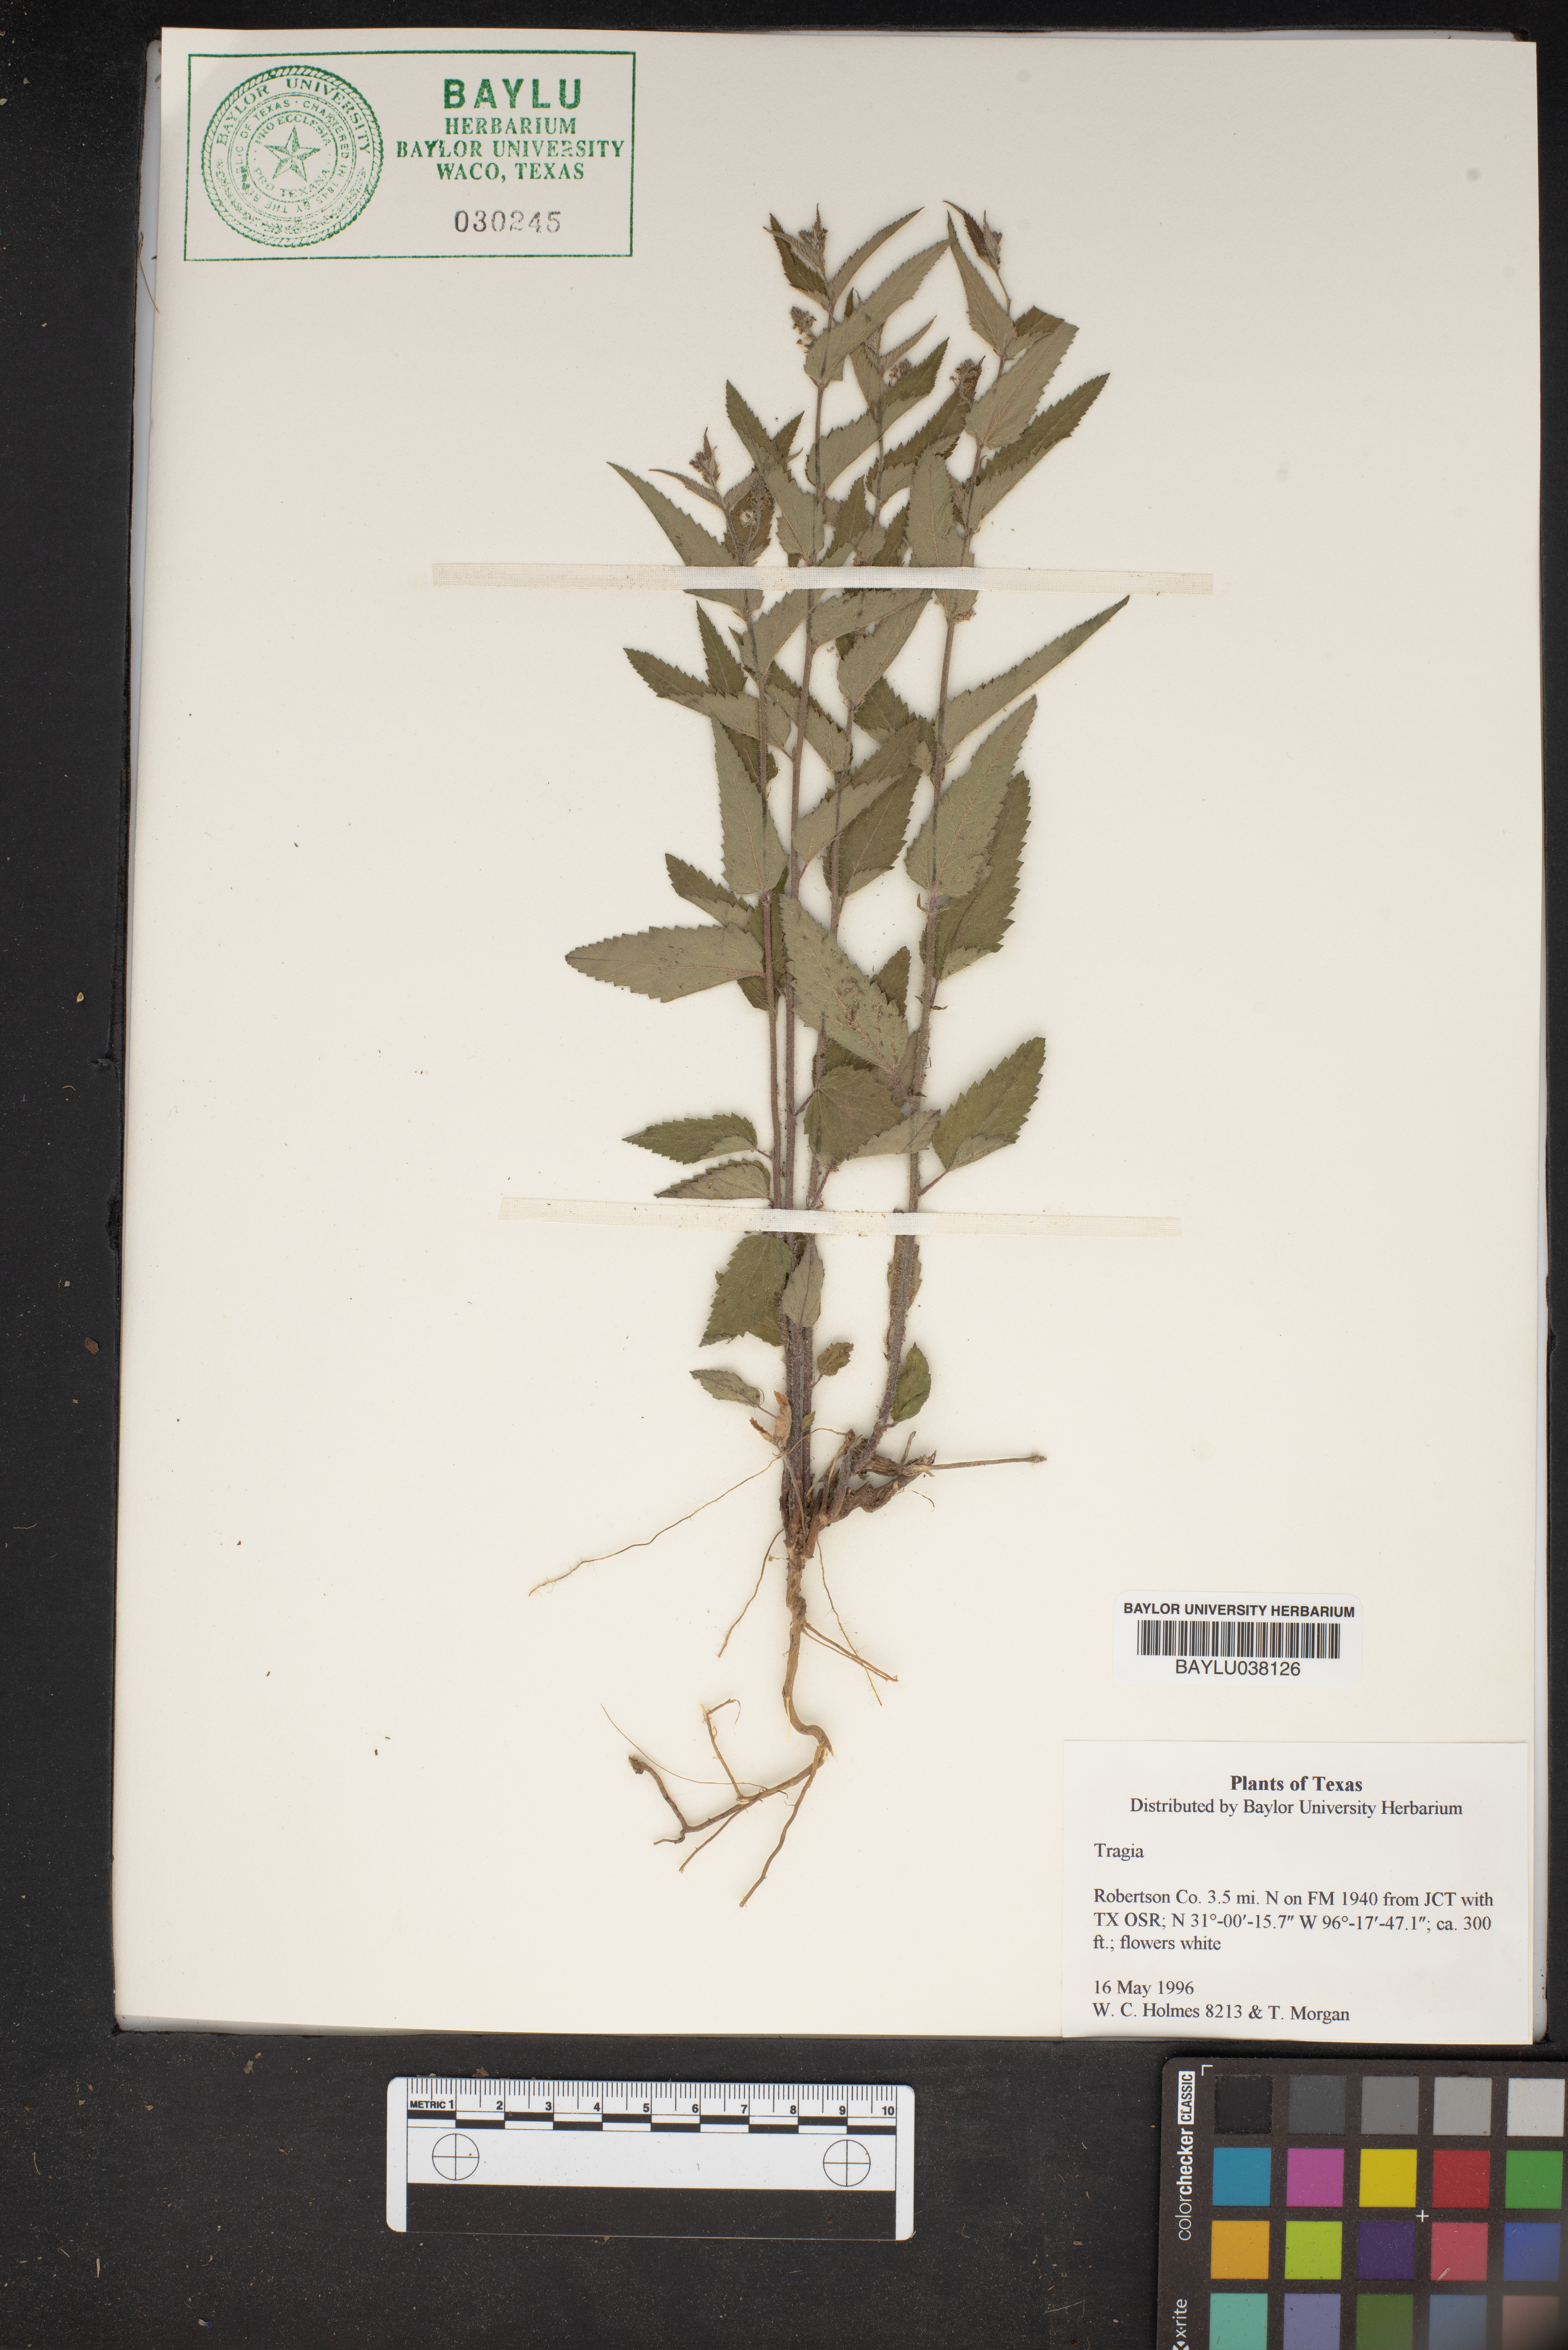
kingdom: Plantae
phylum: Tracheophyta
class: Magnoliopsida
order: Malpighiales
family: Euphorbiaceae
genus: Tragia
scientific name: Tragia
